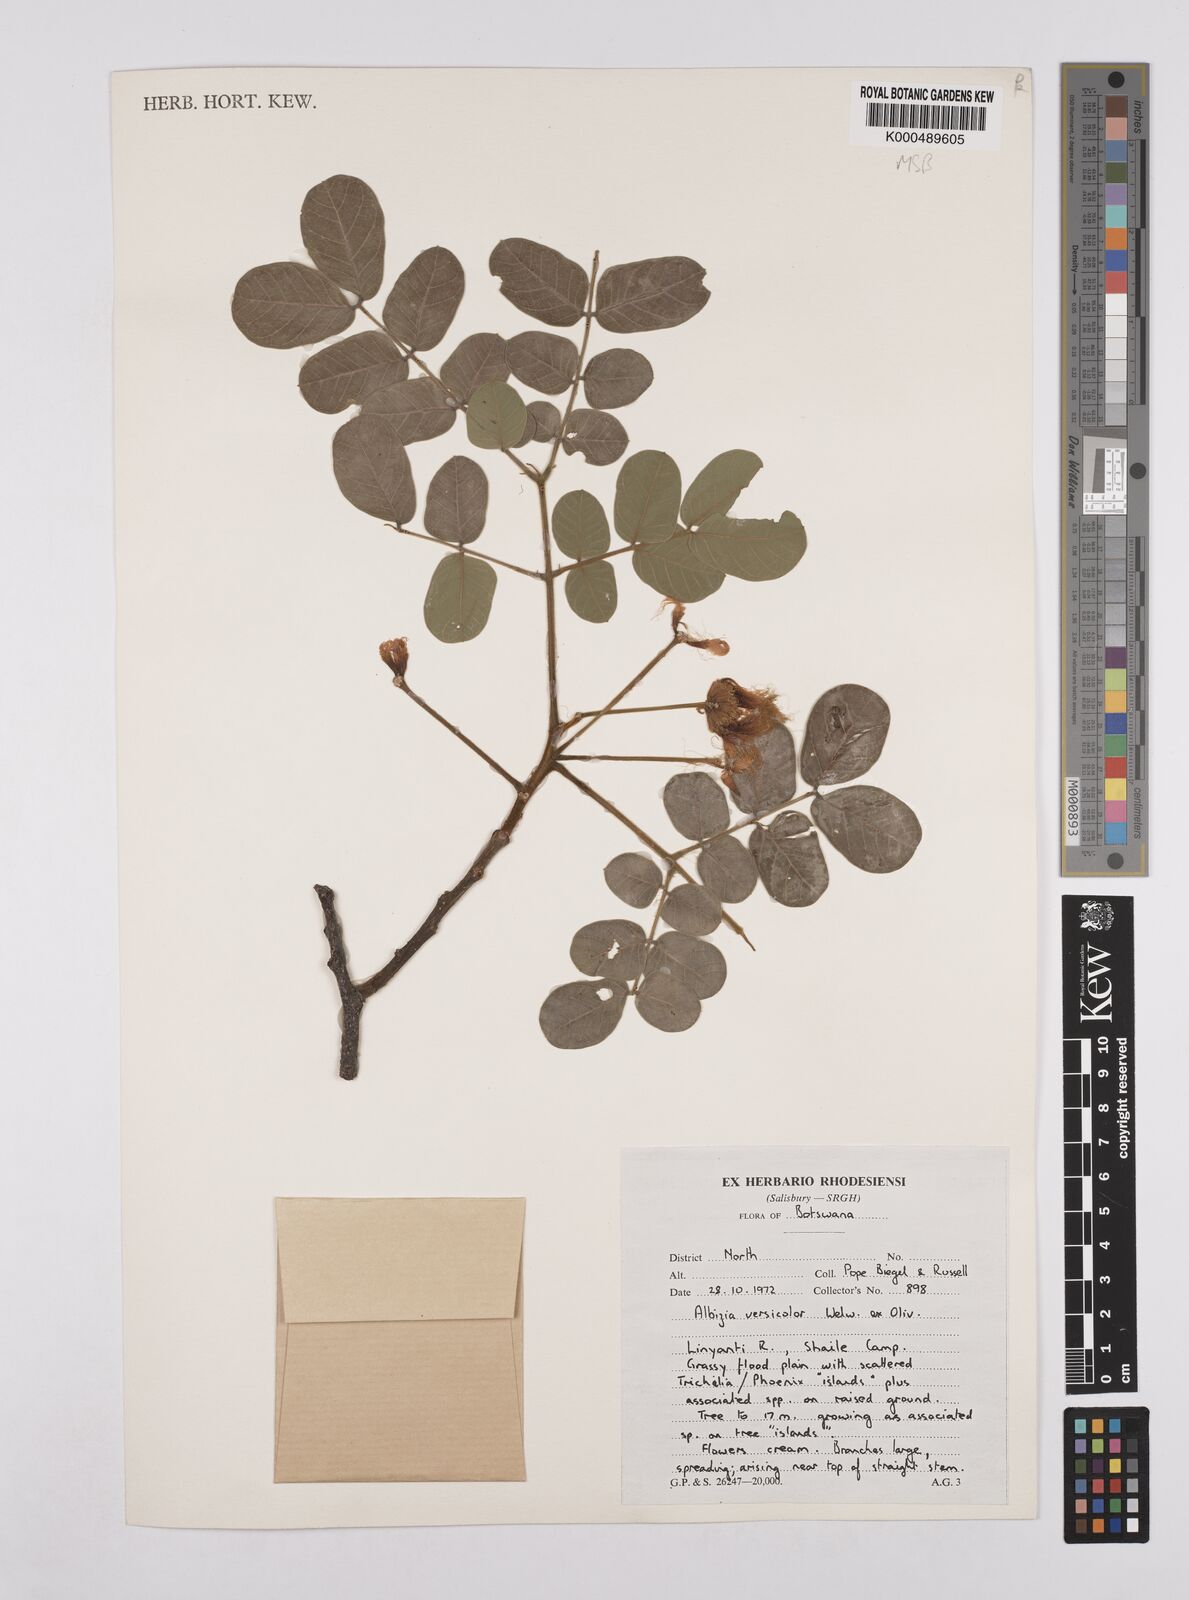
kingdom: Plantae
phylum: Tracheophyta
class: Magnoliopsida
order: Fabales
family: Fabaceae
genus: Albizia
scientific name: Albizia versicolor
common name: Poisonpod
